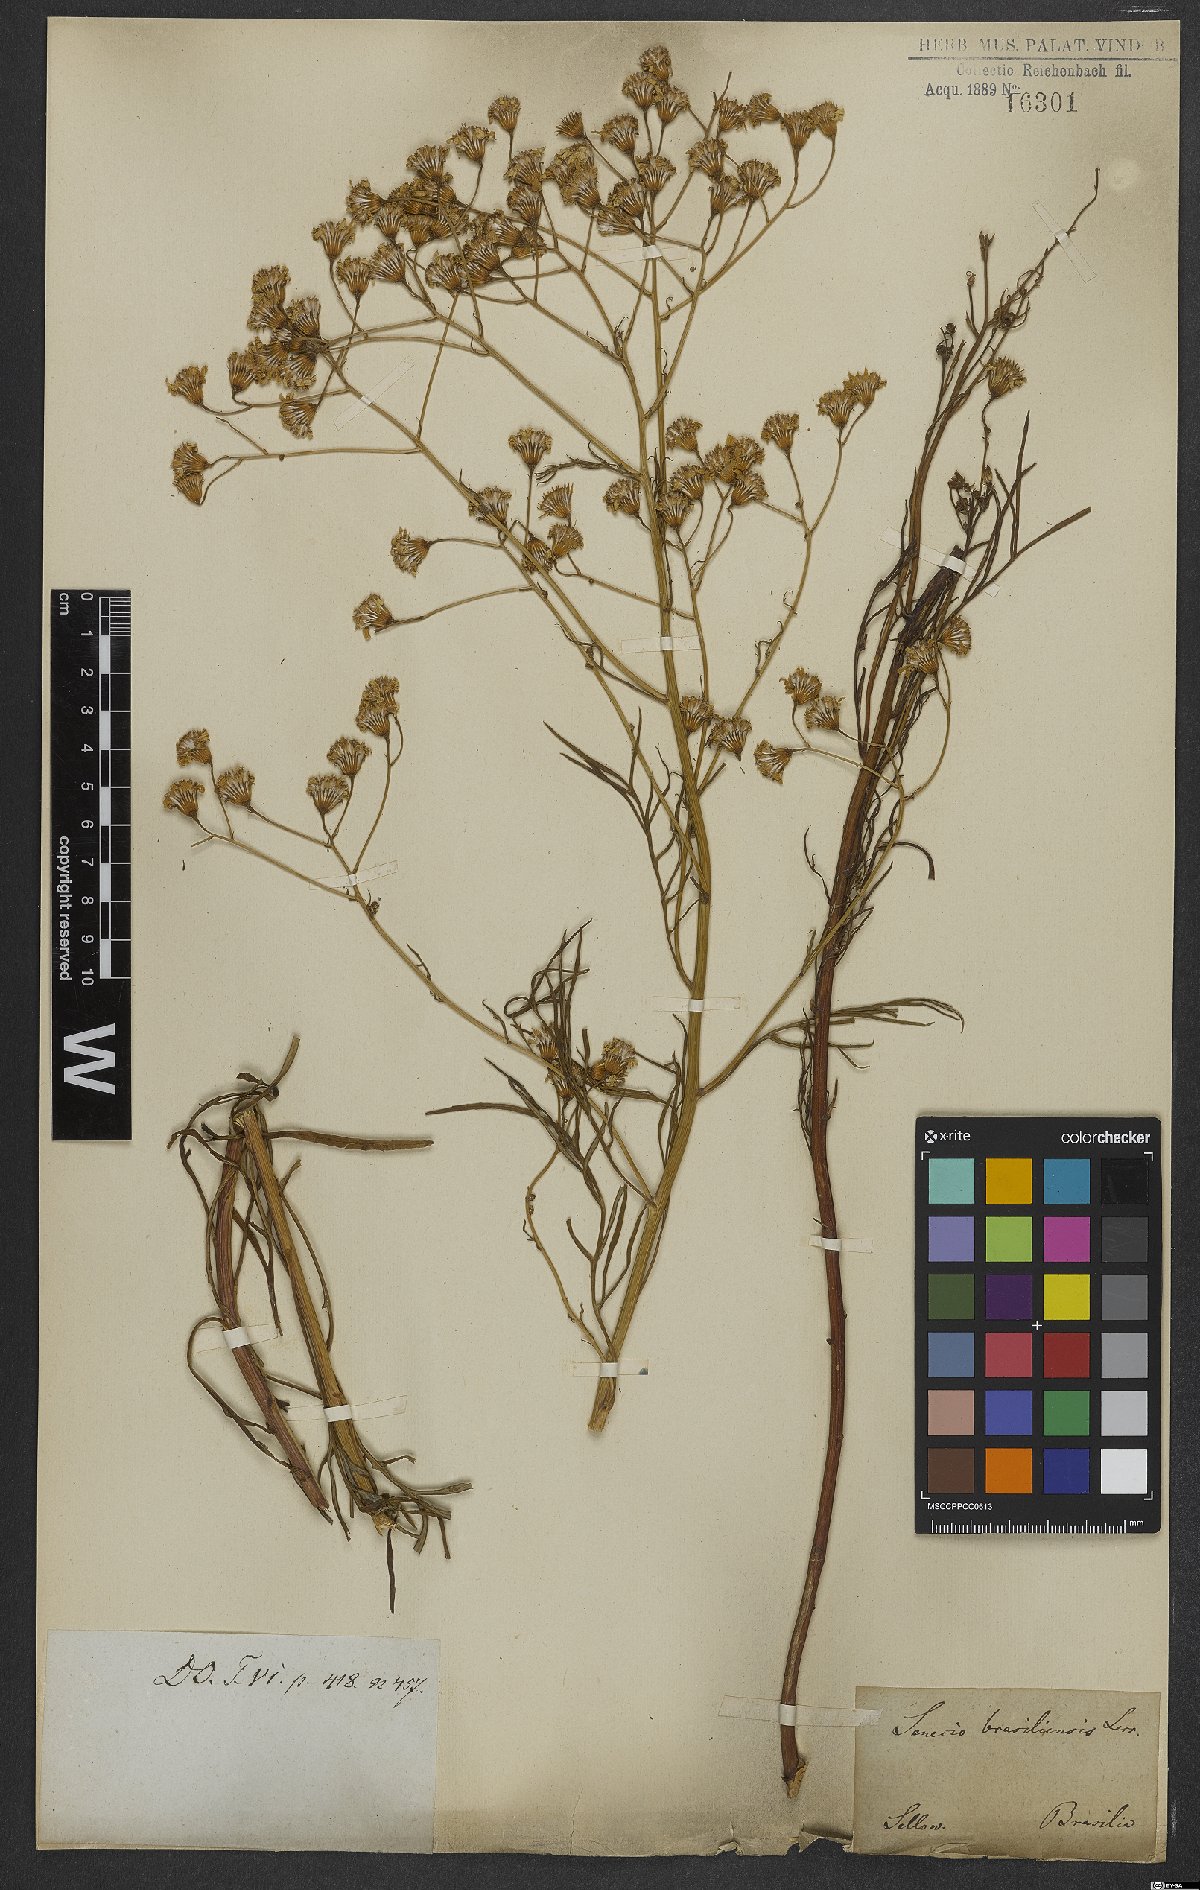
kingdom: Plantae
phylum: Tracheophyta
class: Magnoliopsida
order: Asterales
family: Asteraceae
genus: Senecio
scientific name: Senecio brasiliensis
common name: Hemp-leaf ragwort
